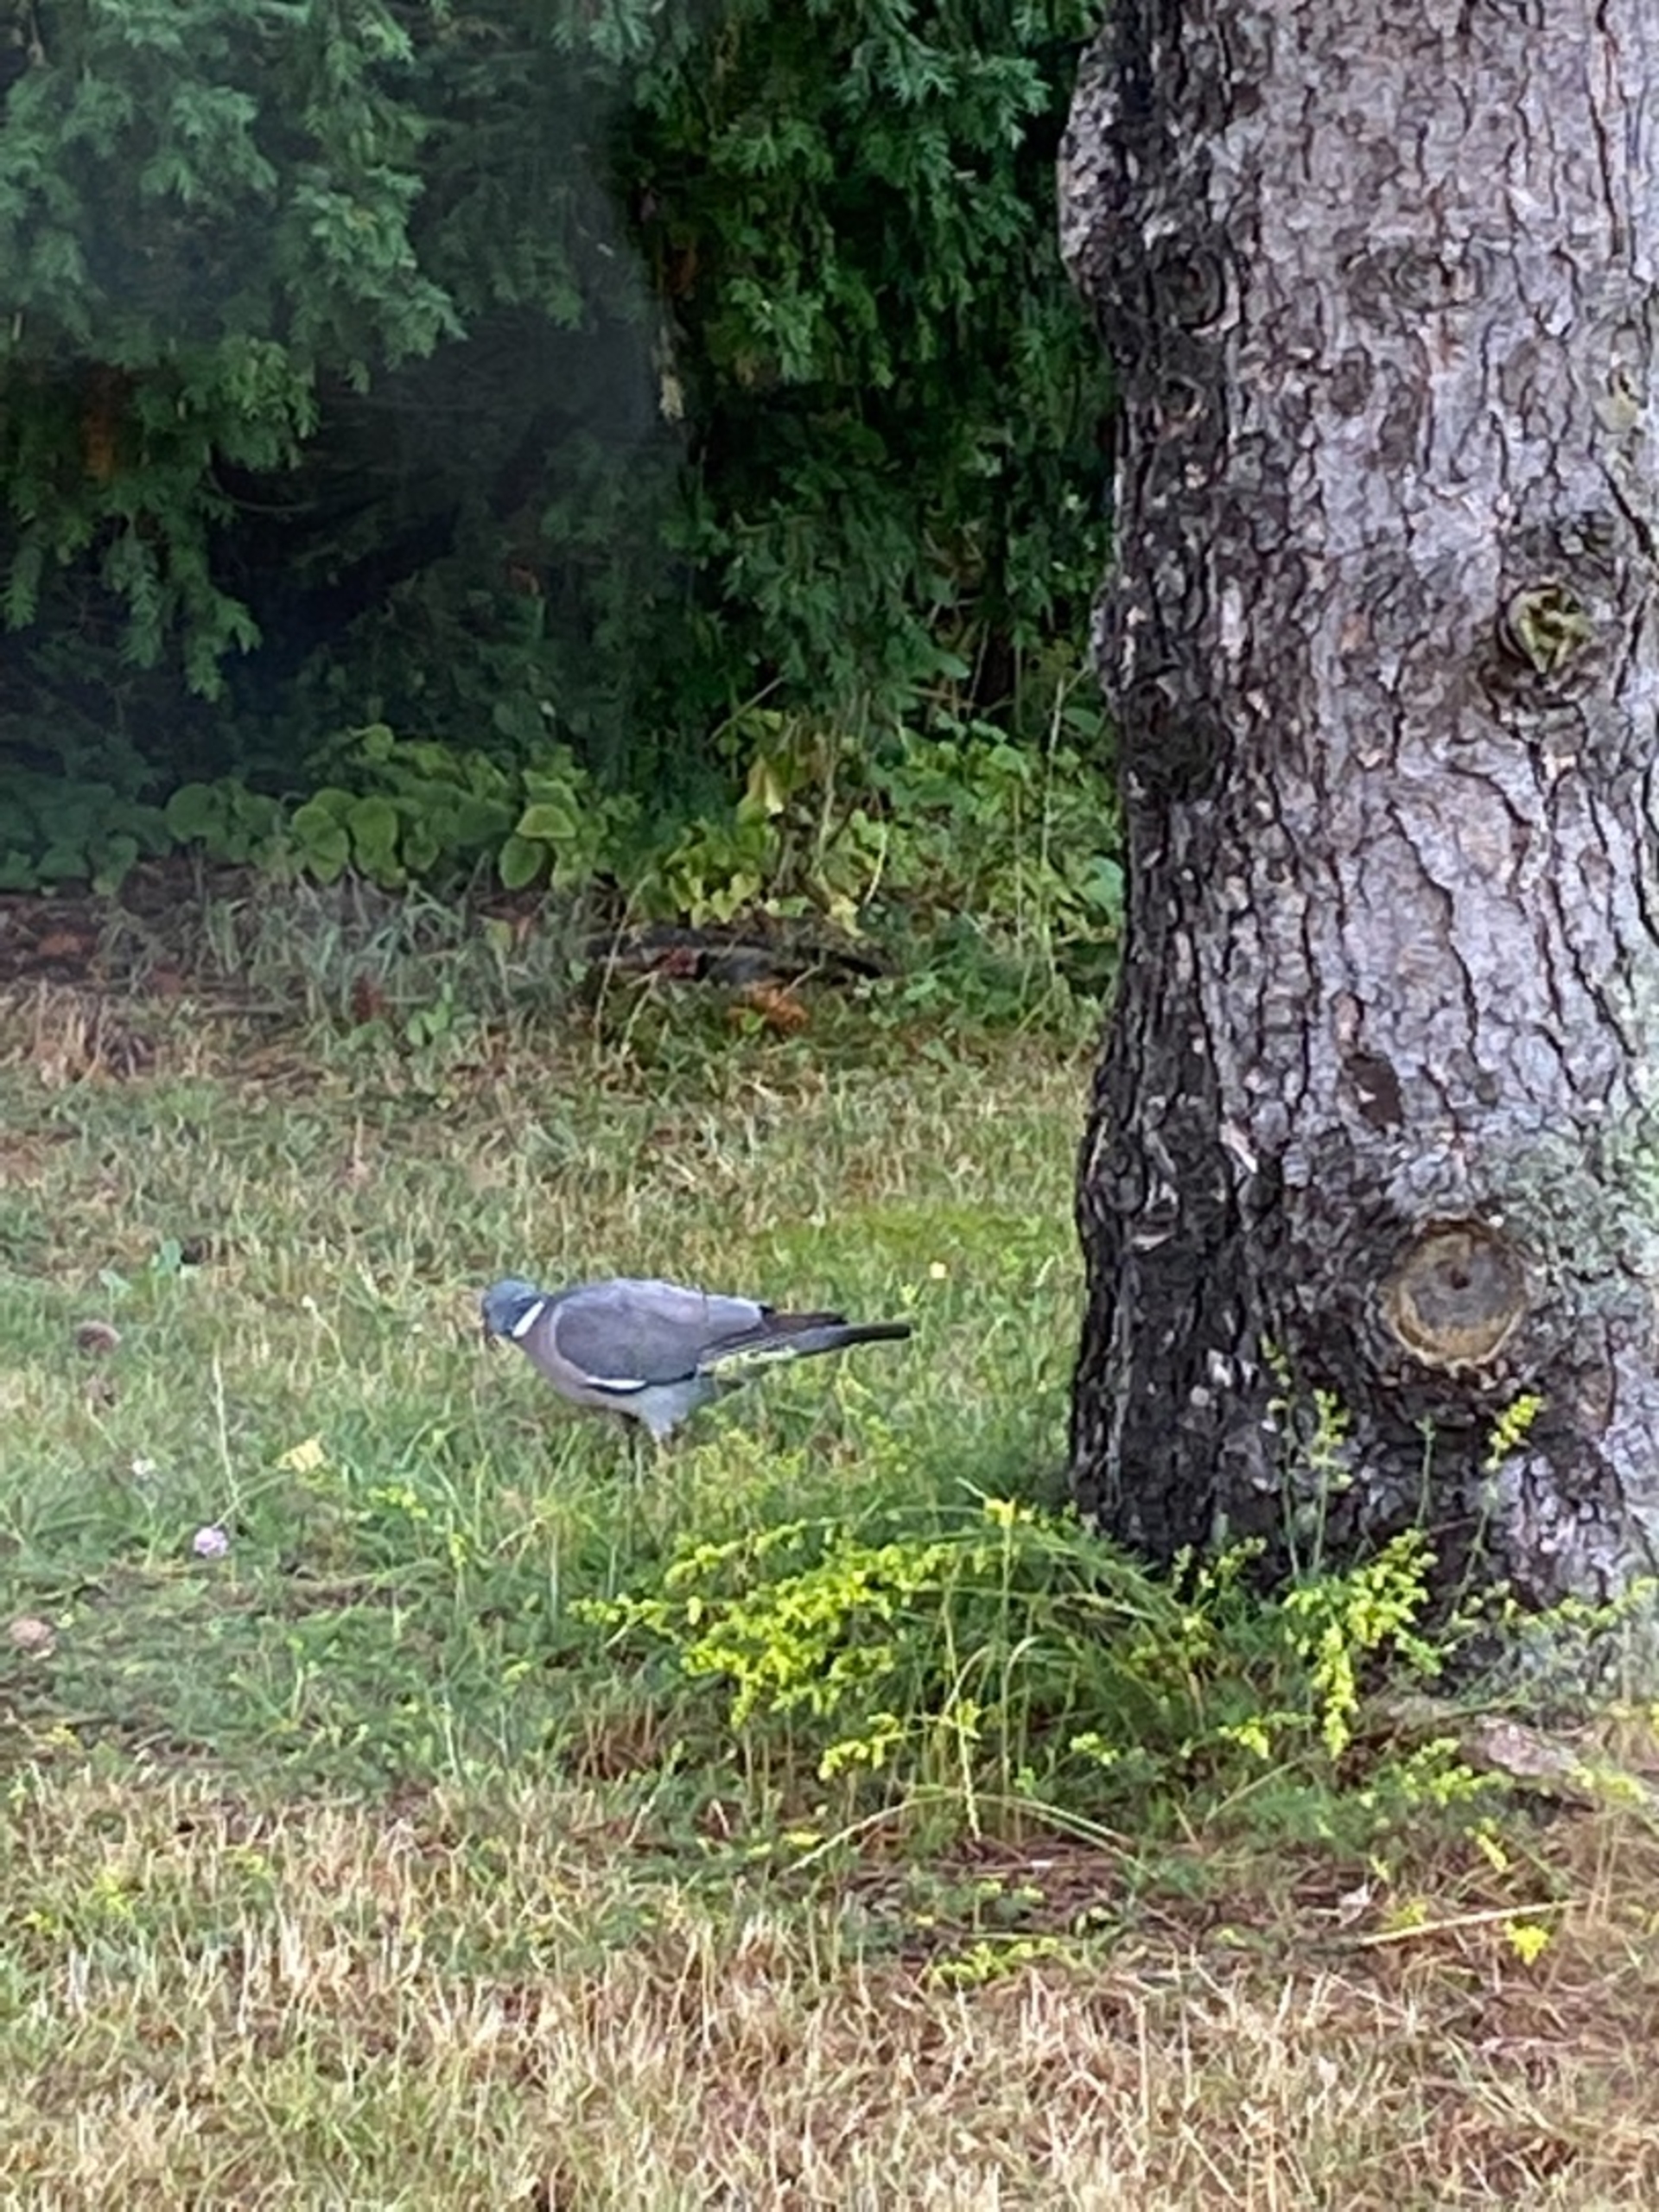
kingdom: Animalia
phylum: Chordata
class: Aves
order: Columbiformes
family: Columbidae
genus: Columba
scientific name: Columba palumbus
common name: Ringdue
